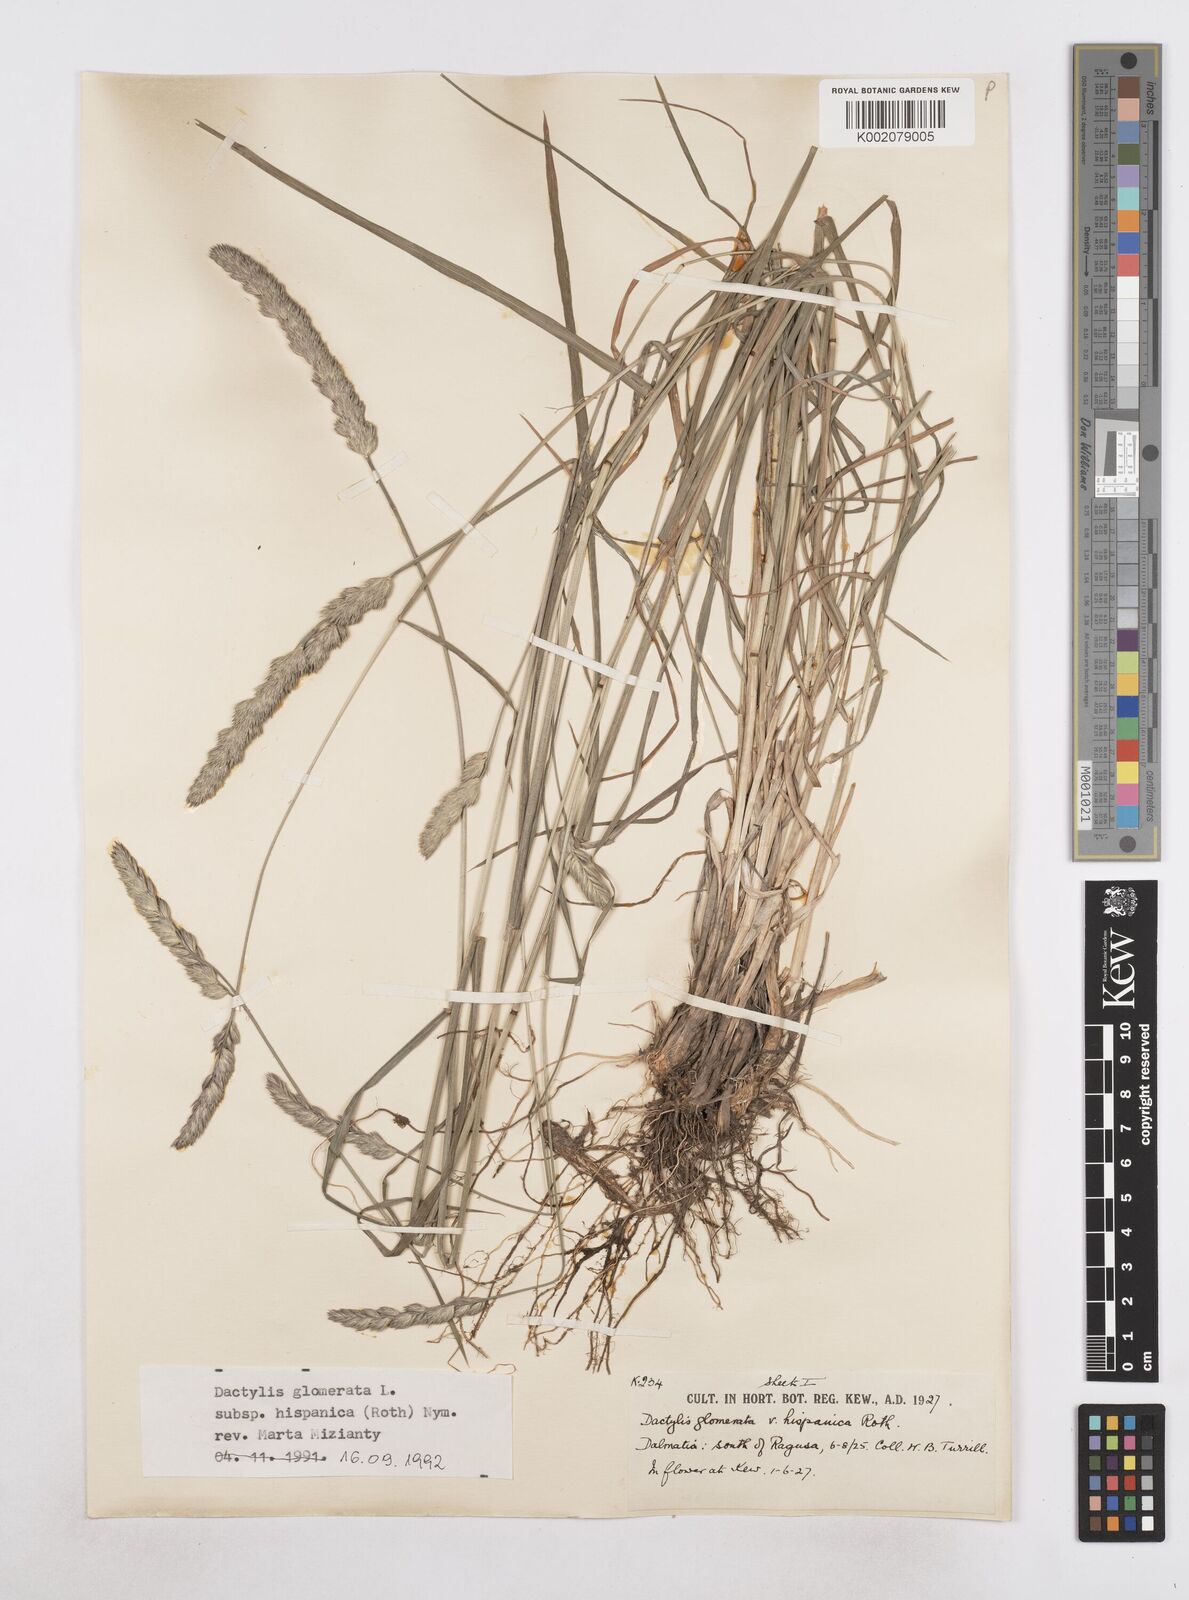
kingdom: Plantae
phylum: Tracheophyta
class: Liliopsida
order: Poales
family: Poaceae
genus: Dactylis
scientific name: Dactylis glomerata
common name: Orchardgrass
